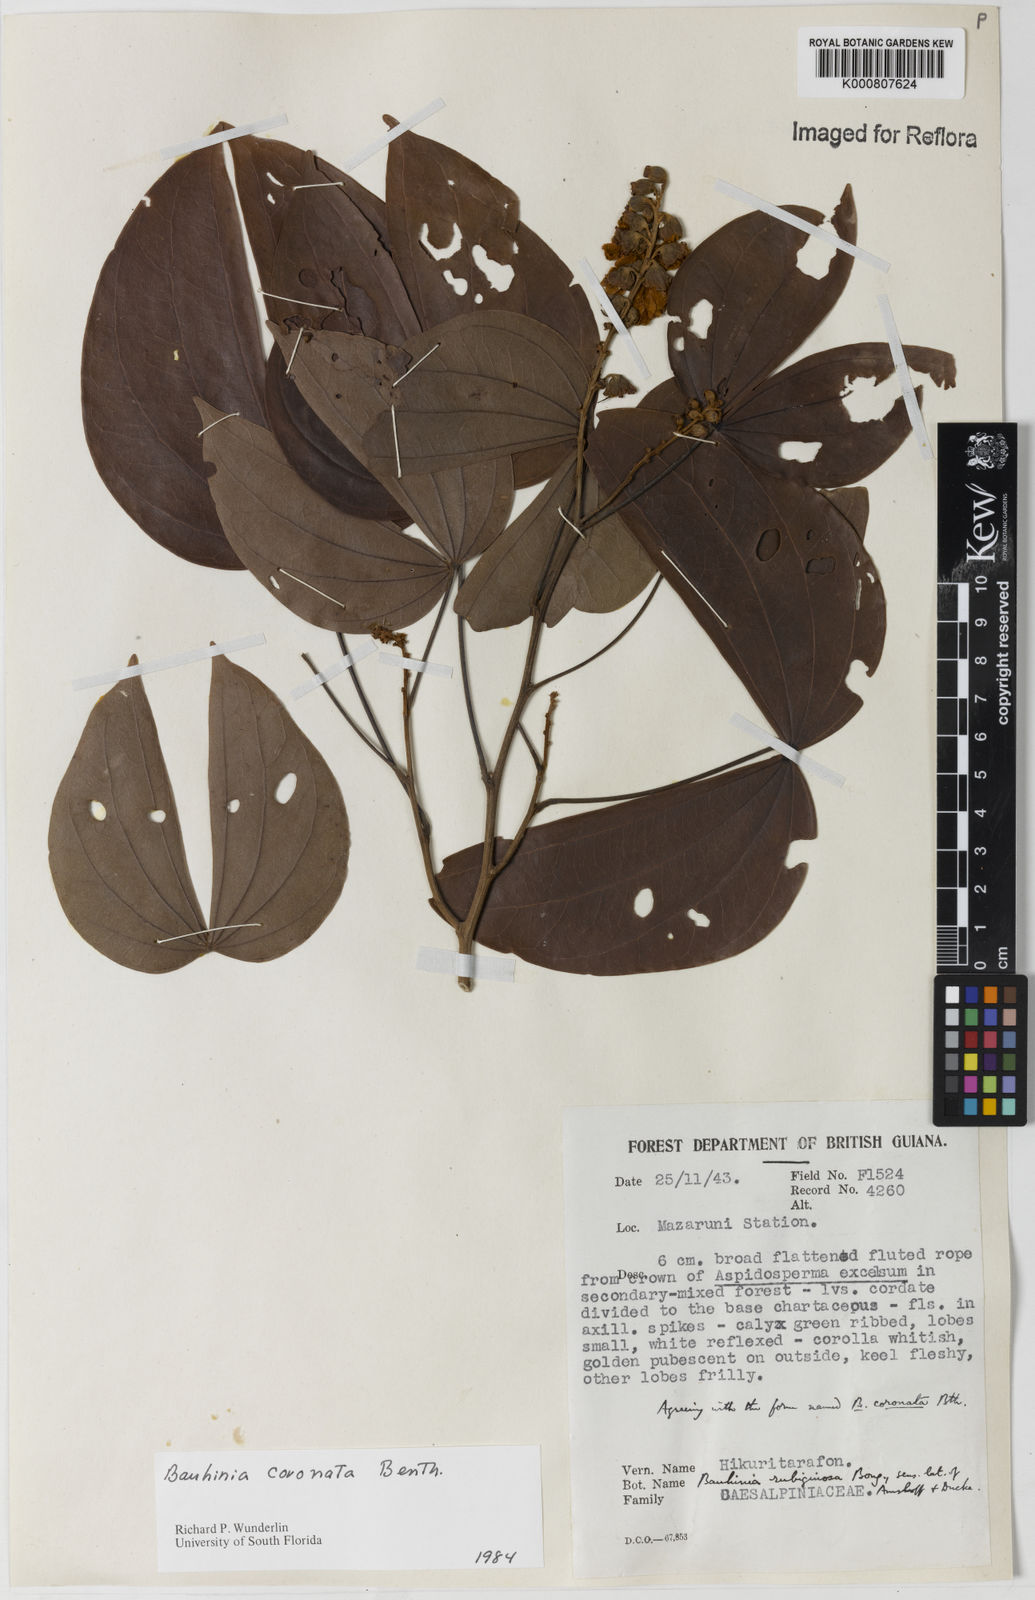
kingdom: Plantae
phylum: Tracheophyta
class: Magnoliopsida
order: Fabales
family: Fabaceae
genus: Schnella
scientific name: Schnella outimouta
